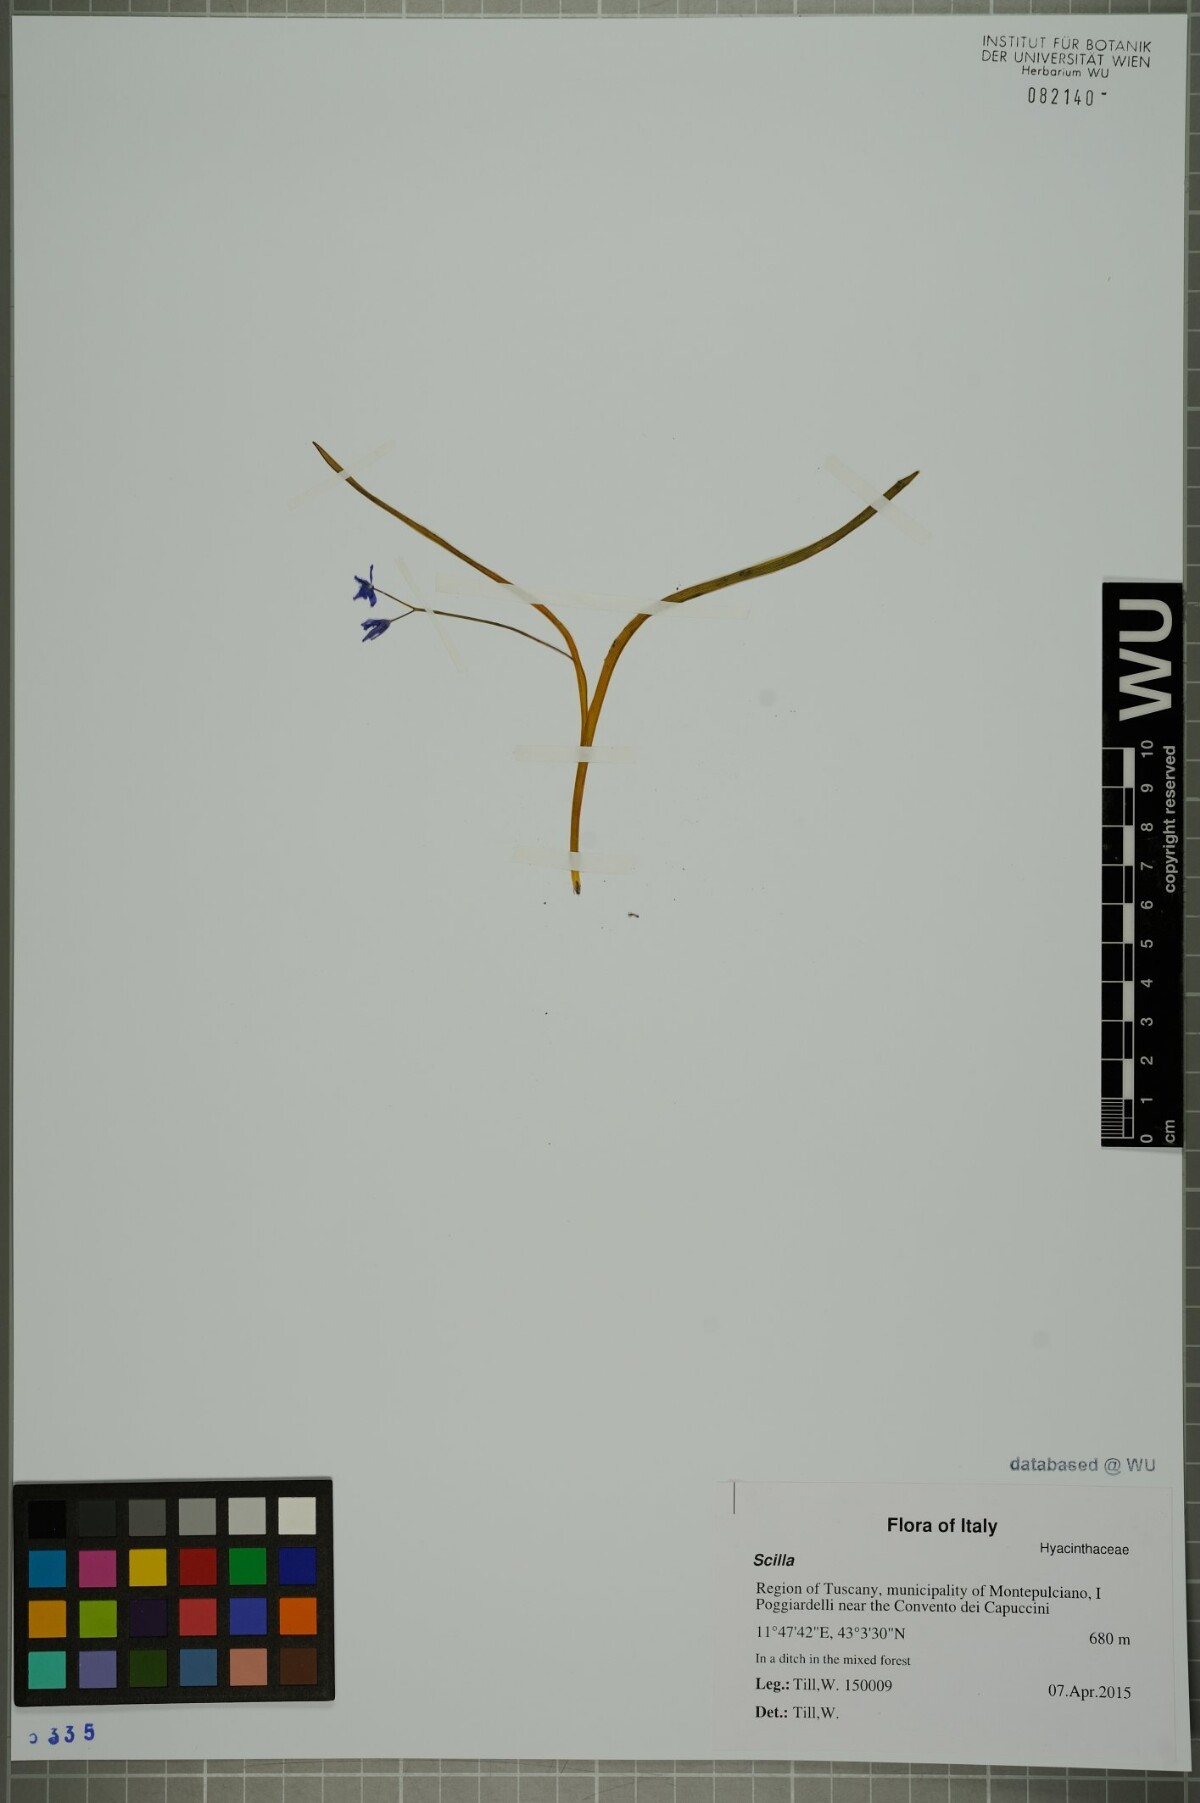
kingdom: Plantae
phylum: Tracheophyta
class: Liliopsida
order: Asparagales
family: Asparagaceae
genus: Scilla
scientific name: Scilla
